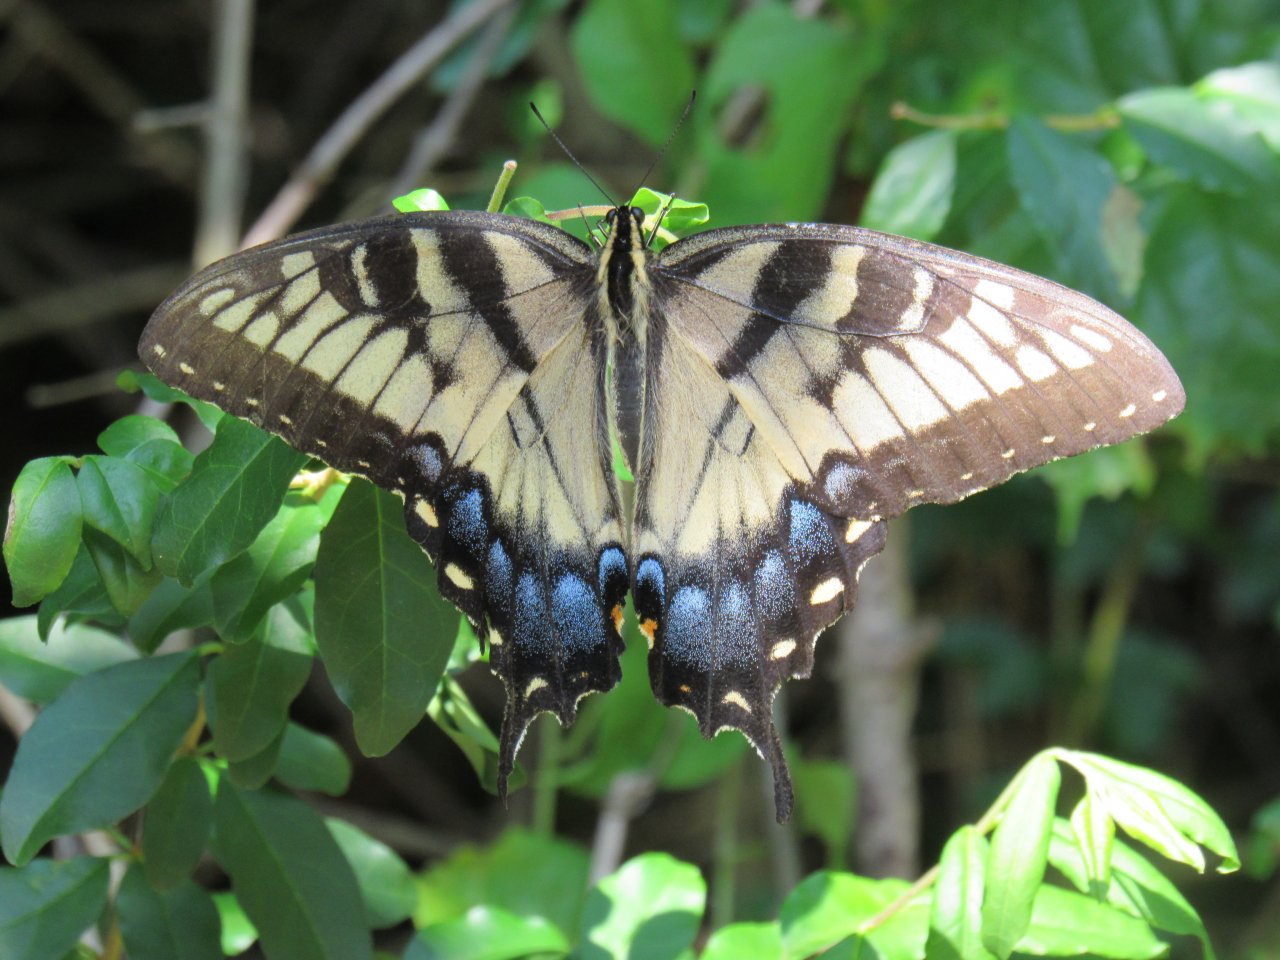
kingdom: Animalia
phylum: Arthropoda
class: Insecta
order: Lepidoptera
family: Papilionidae
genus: Pterourus
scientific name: Pterourus glaucus
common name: Eastern Tiger Swallowtail
